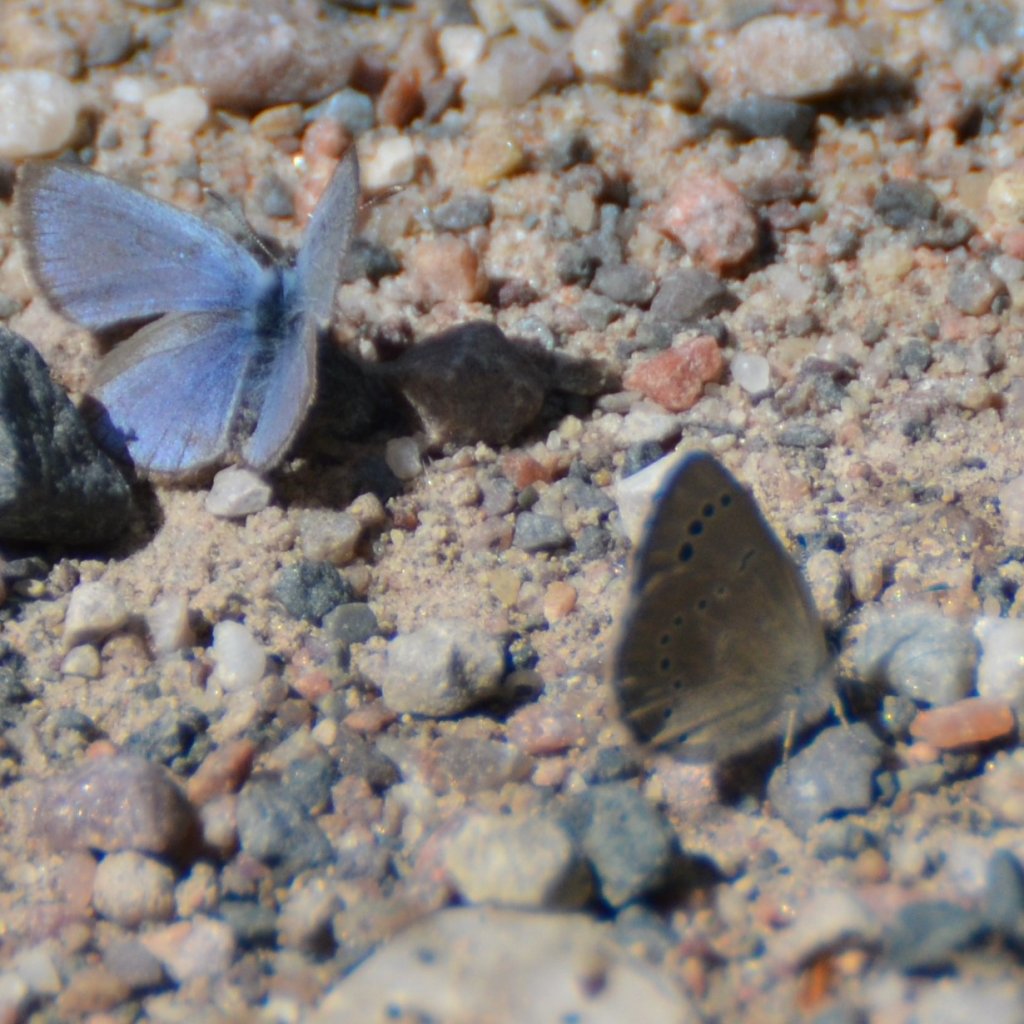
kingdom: Animalia
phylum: Arthropoda
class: Insecta
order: Lepidoptera
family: Lycaenidae
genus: Glaucopsyche
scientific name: Glaucopsyche lygdamus
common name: Silvery Blue
